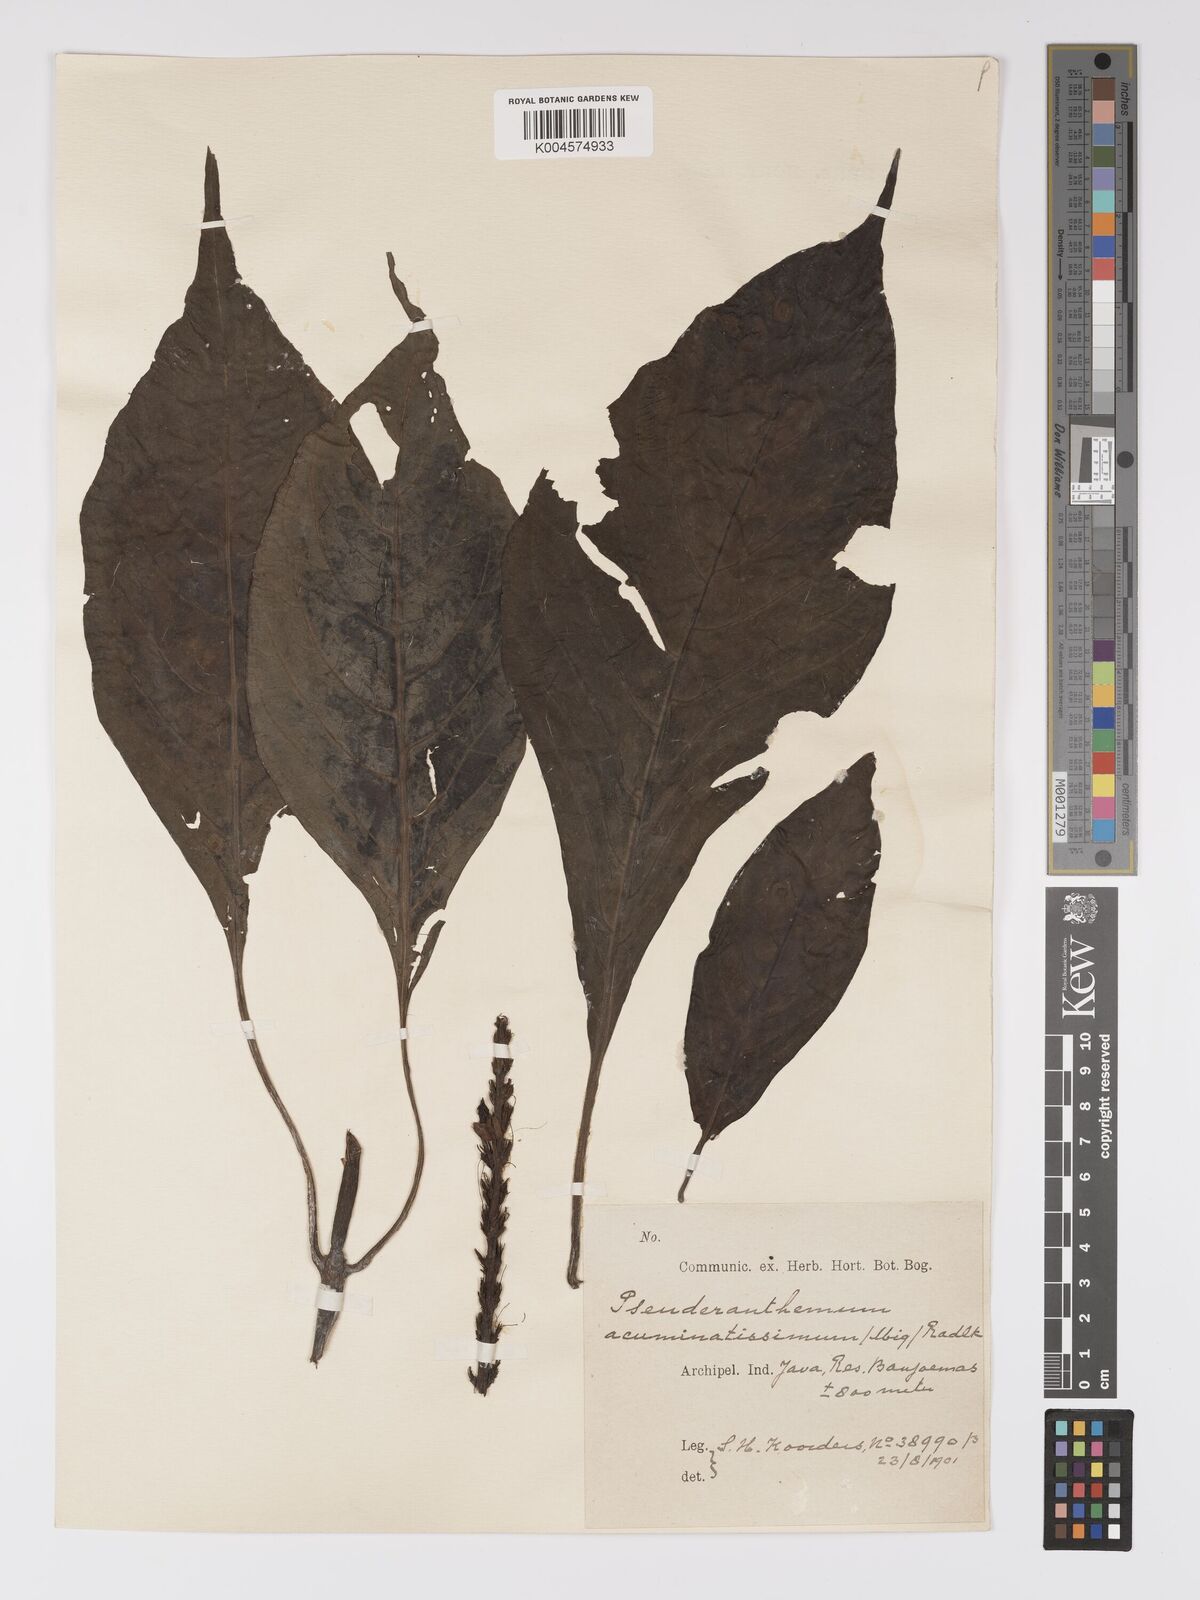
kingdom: Plantae
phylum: Tracheophyta
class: Magnoliopsida
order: Lamiales
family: Acanthaceae
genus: Pseuderanthemum
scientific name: Pseuderanthemum acuminatissimum
